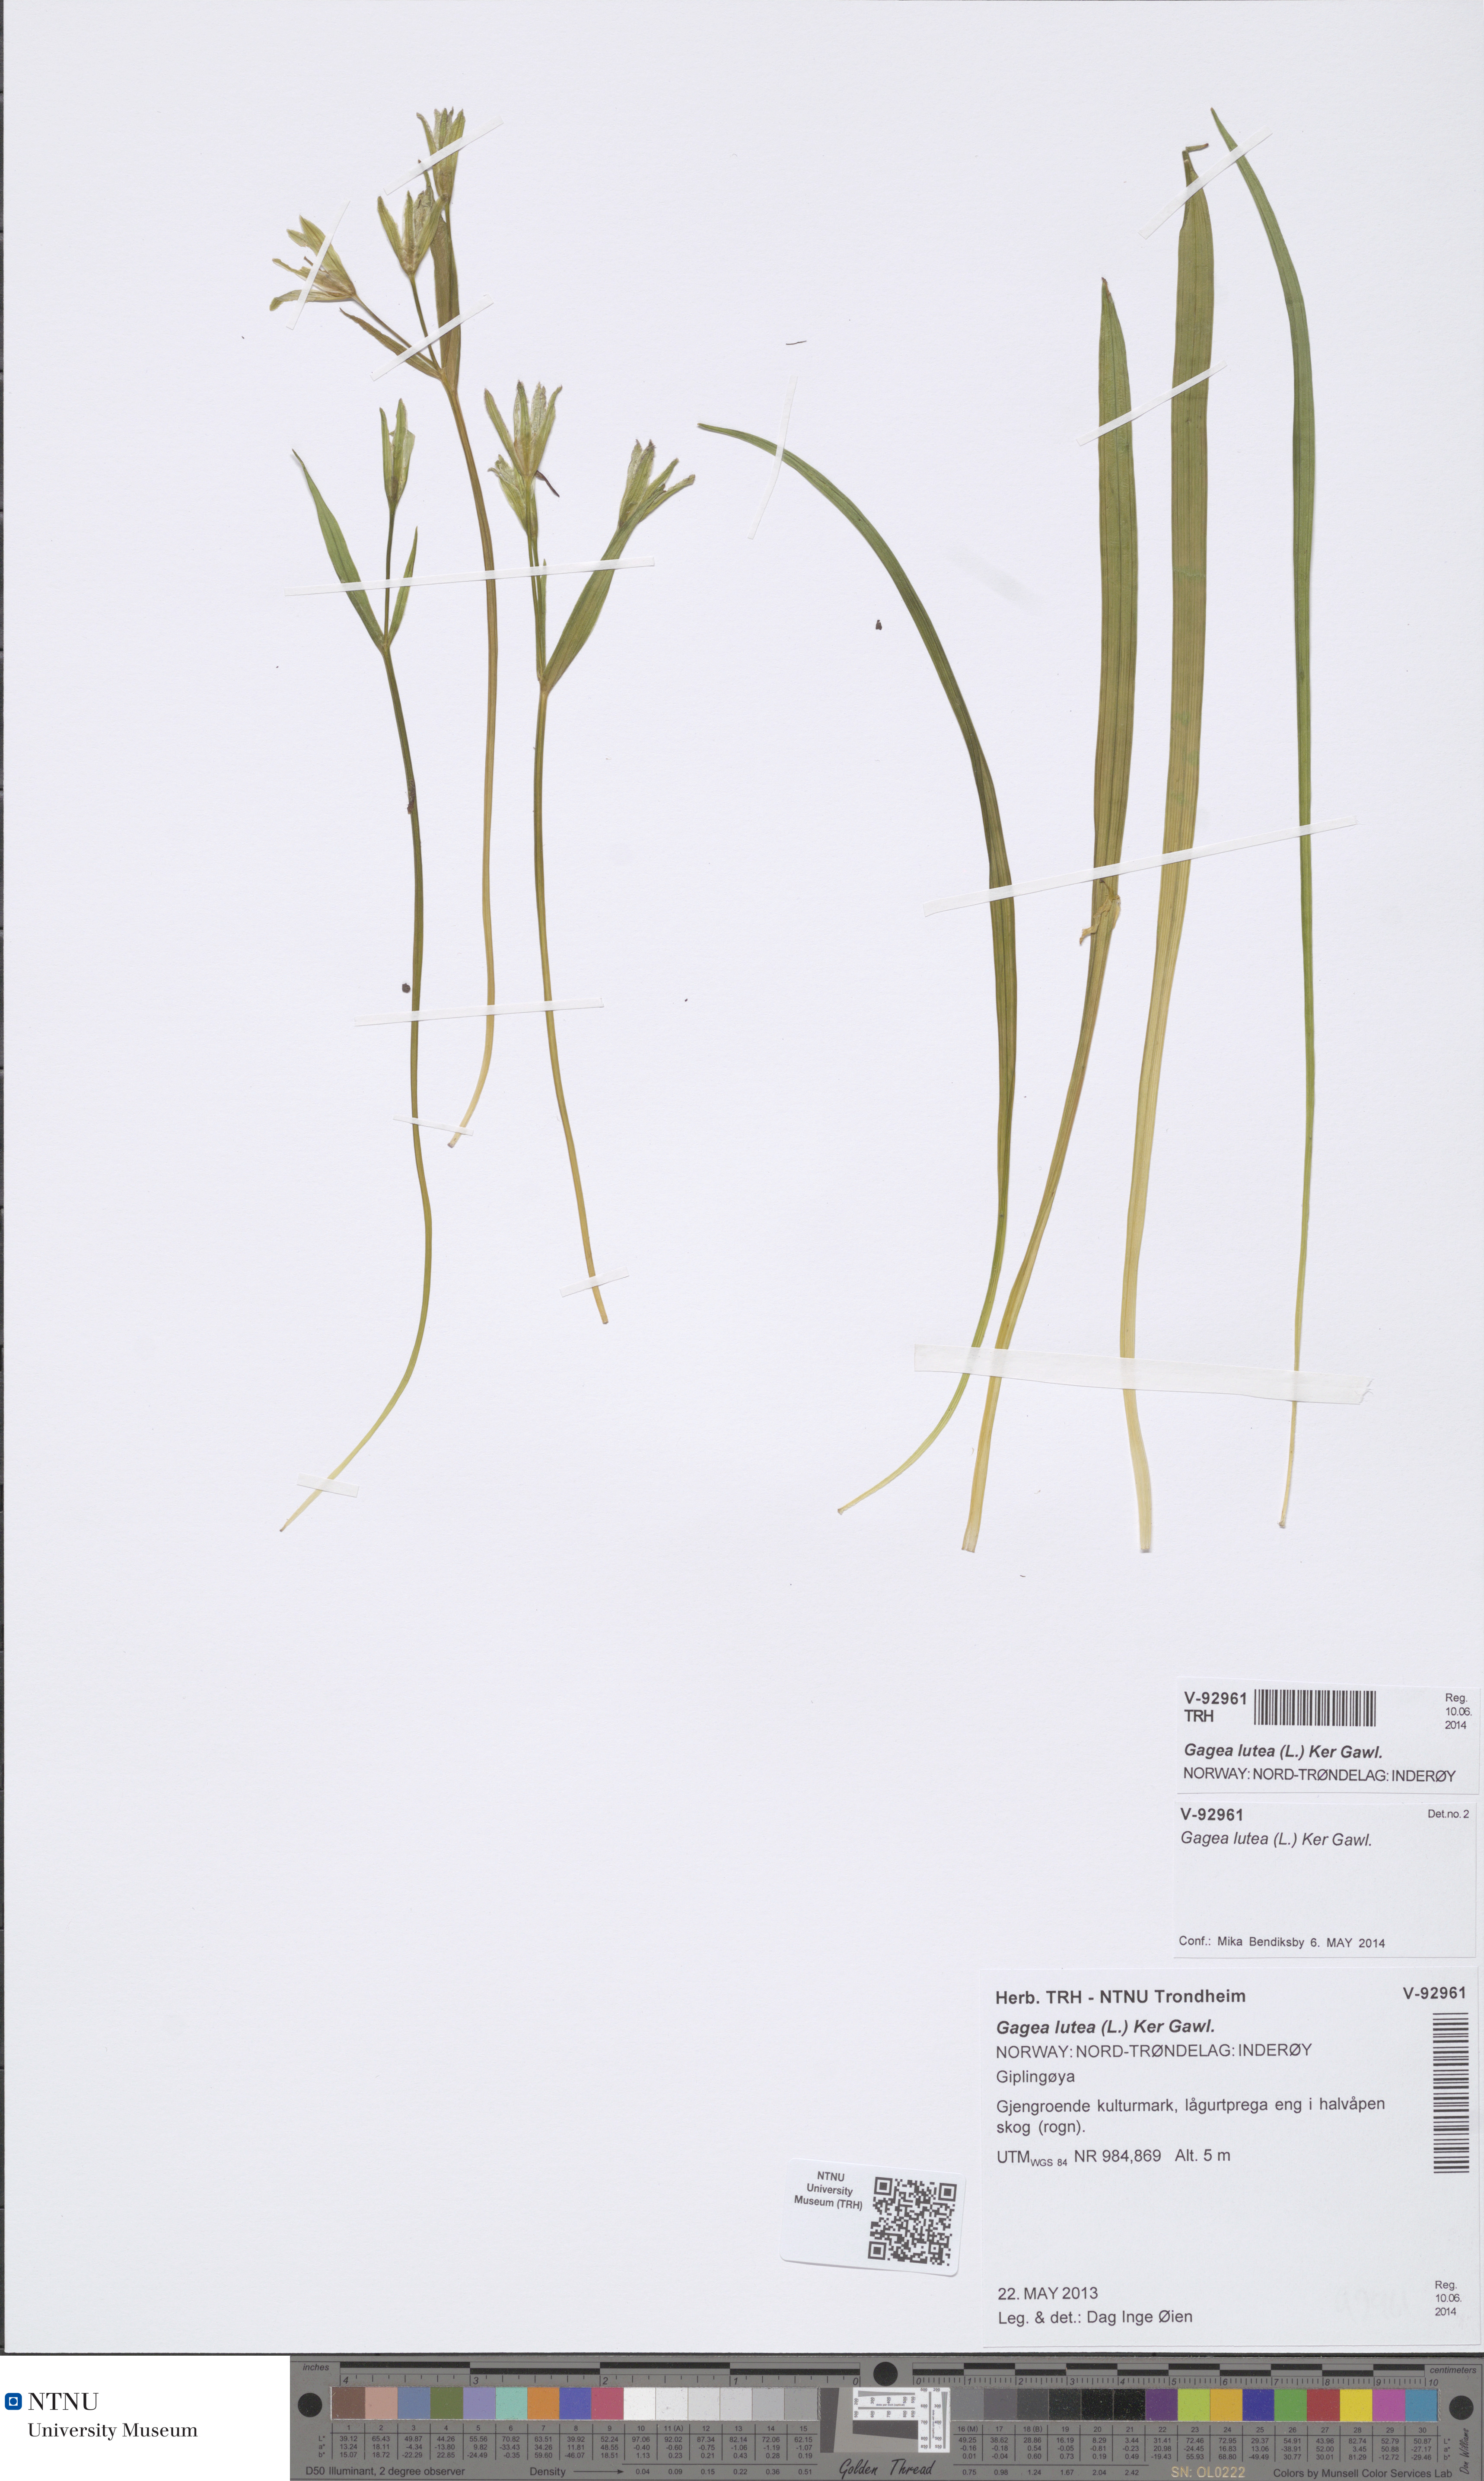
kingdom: Plantae
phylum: Tracheophyta
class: Liliopsida
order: Liliales
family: Liliaceae
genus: Gagea
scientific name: Gagea lutea
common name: Yellow star-of-bethlehem
